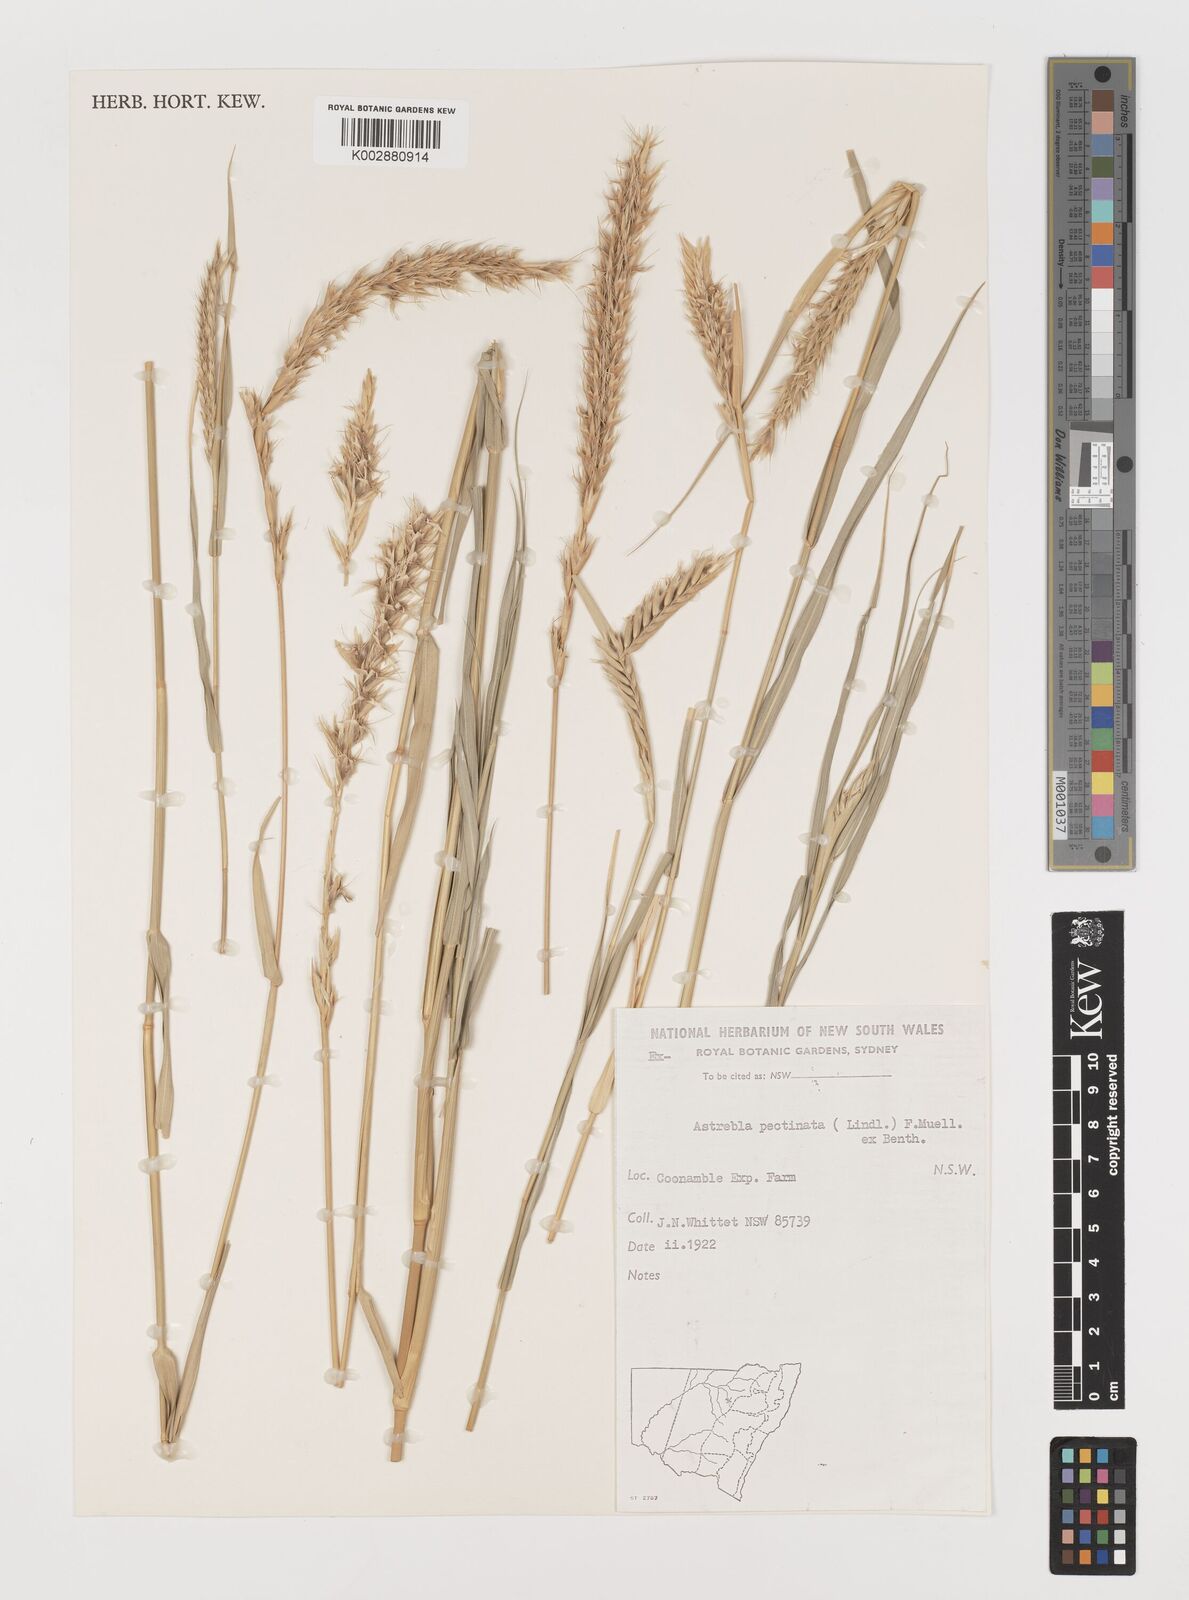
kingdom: Plantae
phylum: Tracheophyta
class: Liliopsida
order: Poales
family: Poaceae
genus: Astrebla
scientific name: Astrebla pectinata
